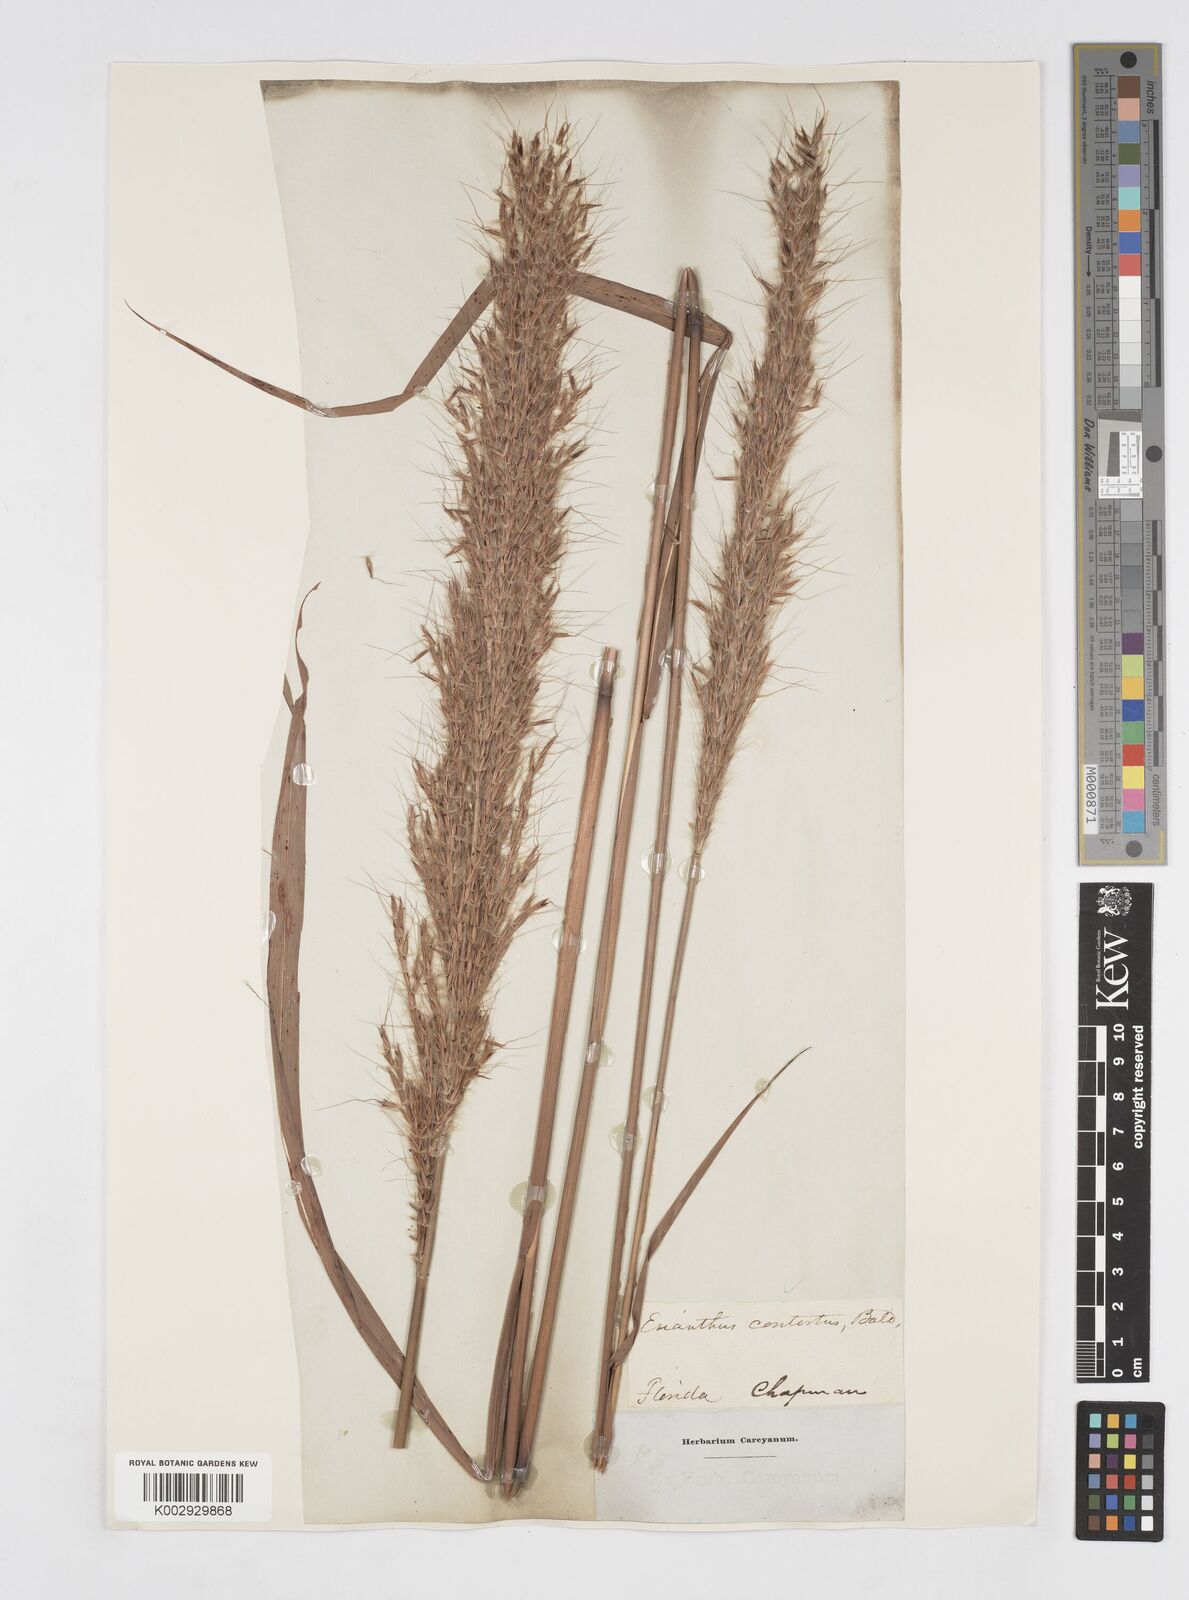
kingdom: Plantae
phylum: Tracheophyta
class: Liliopsida
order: Poales
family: Poaceae
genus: Erianthus
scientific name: Erianthus contortus
